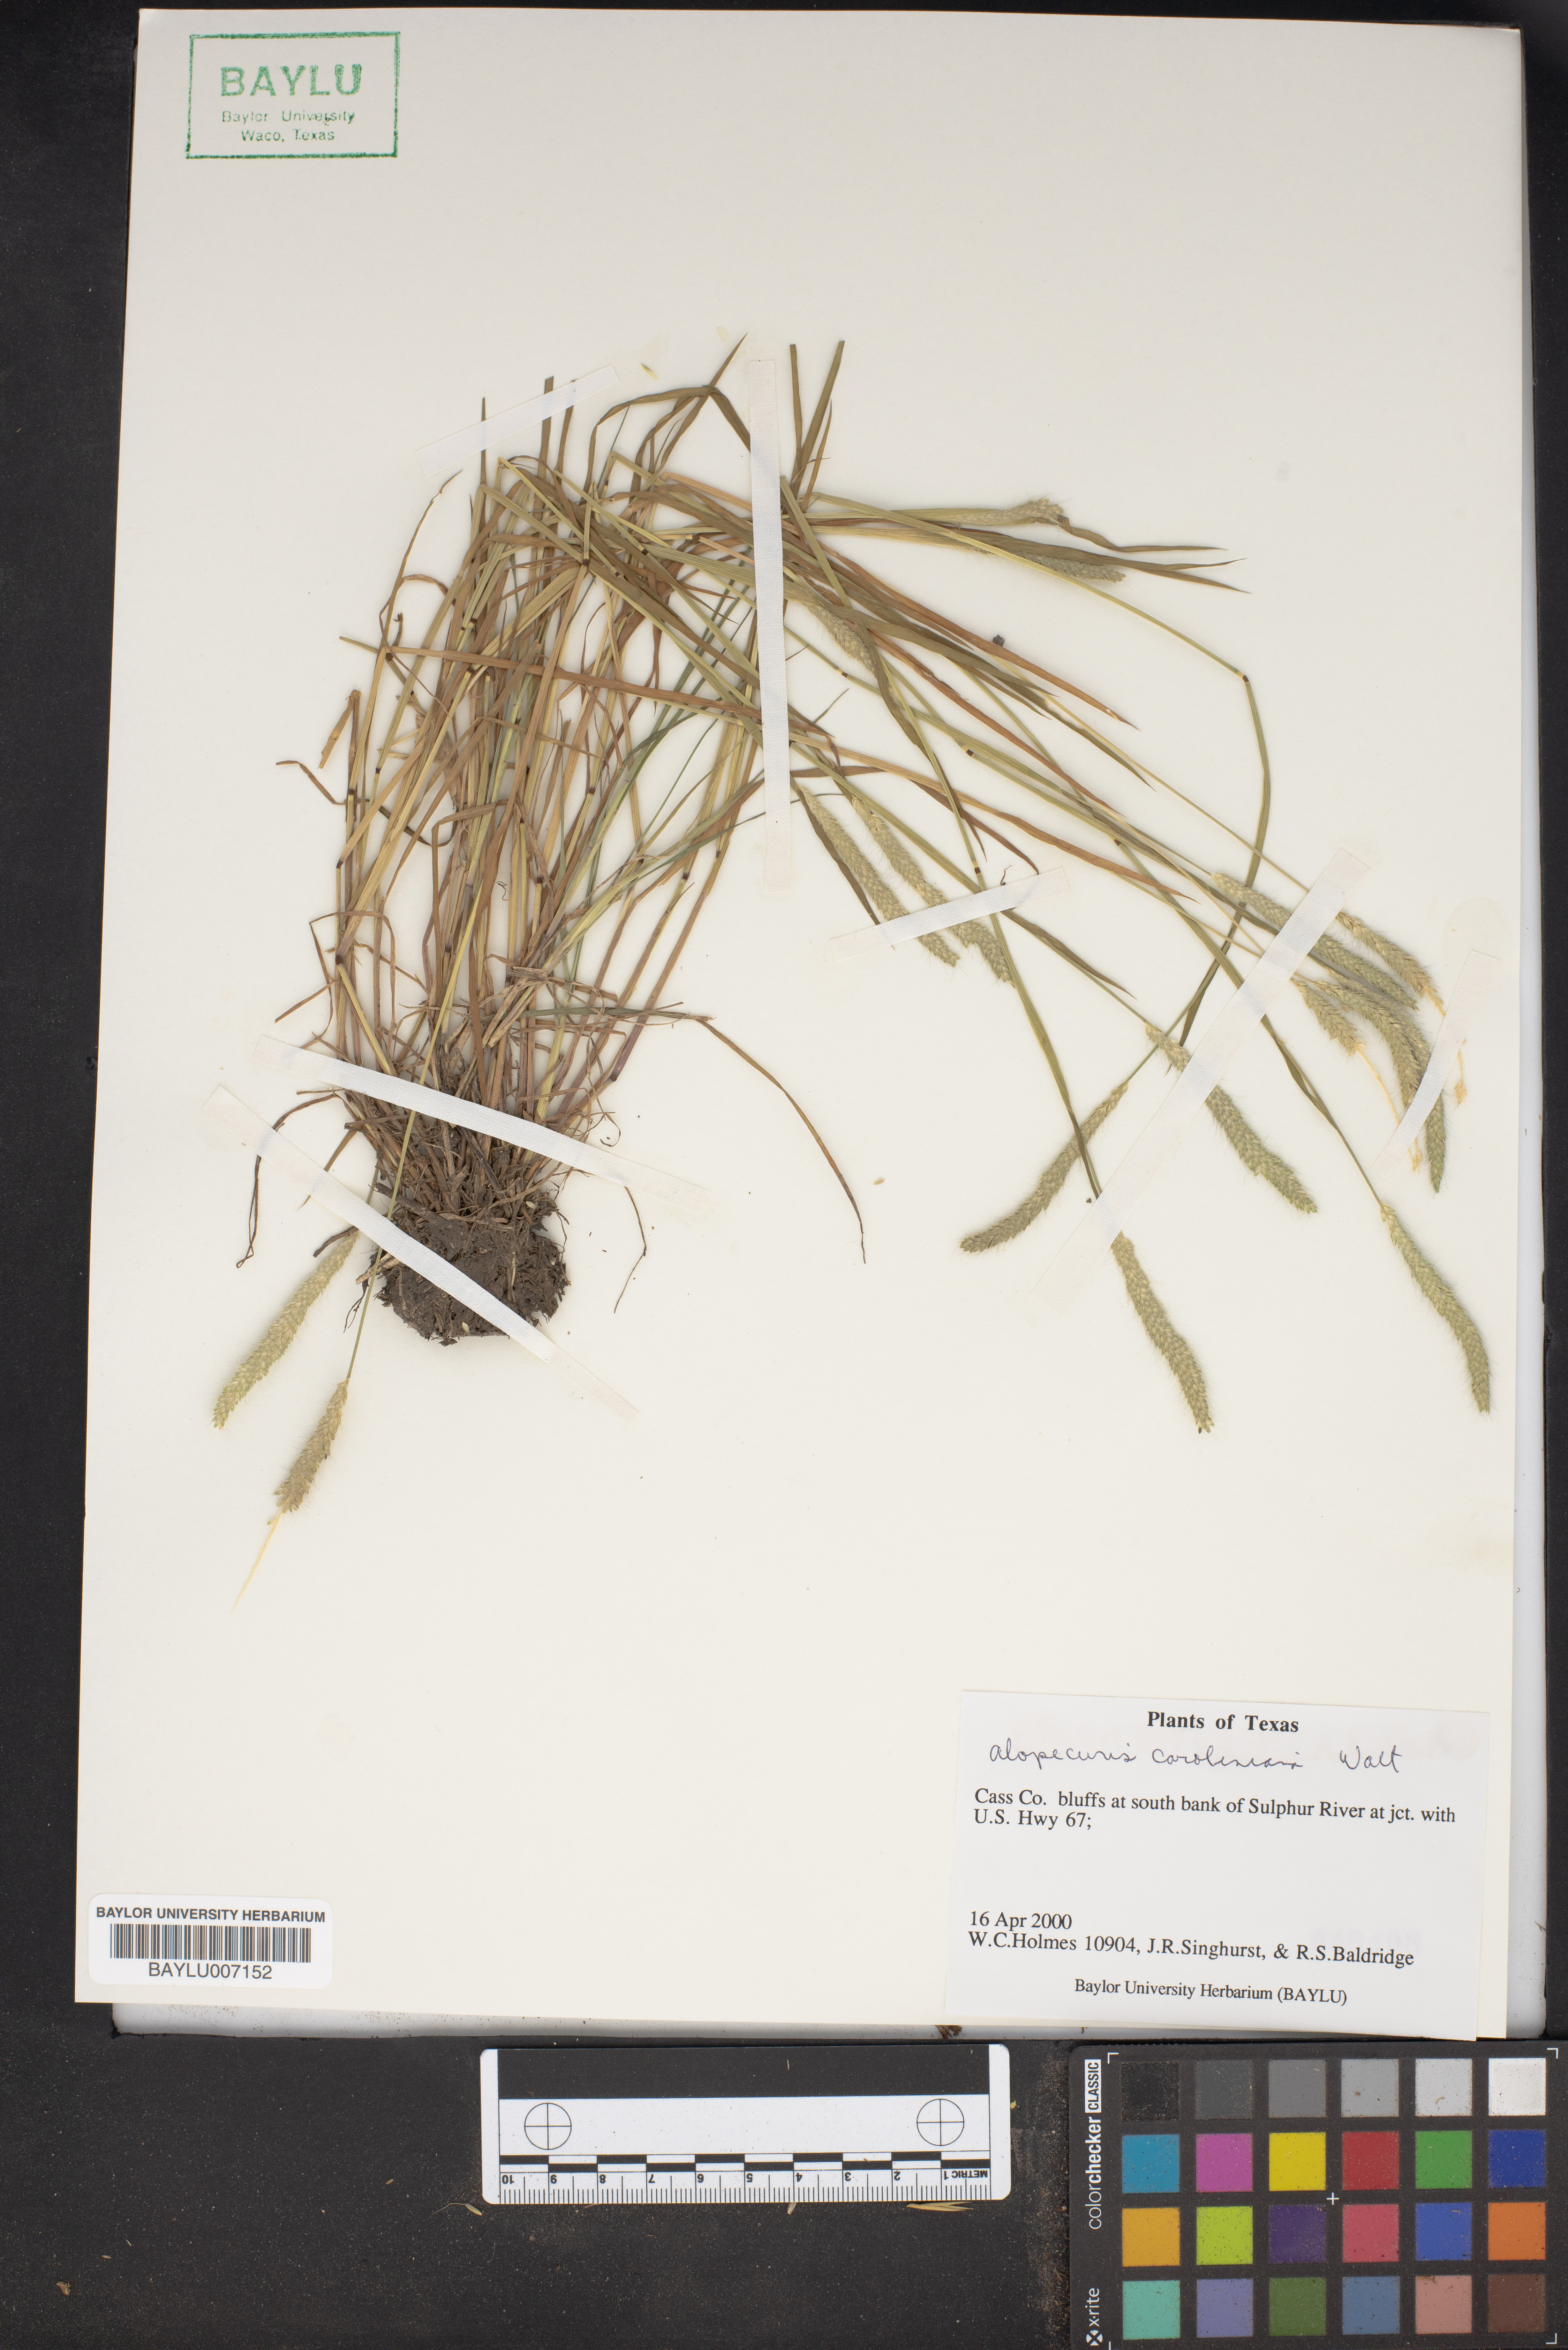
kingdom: Plantae
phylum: Tracheophyta
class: Liliopsida
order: Poales
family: Poaceae
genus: Cornucopiae
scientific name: Cornucopiae cucullatum
